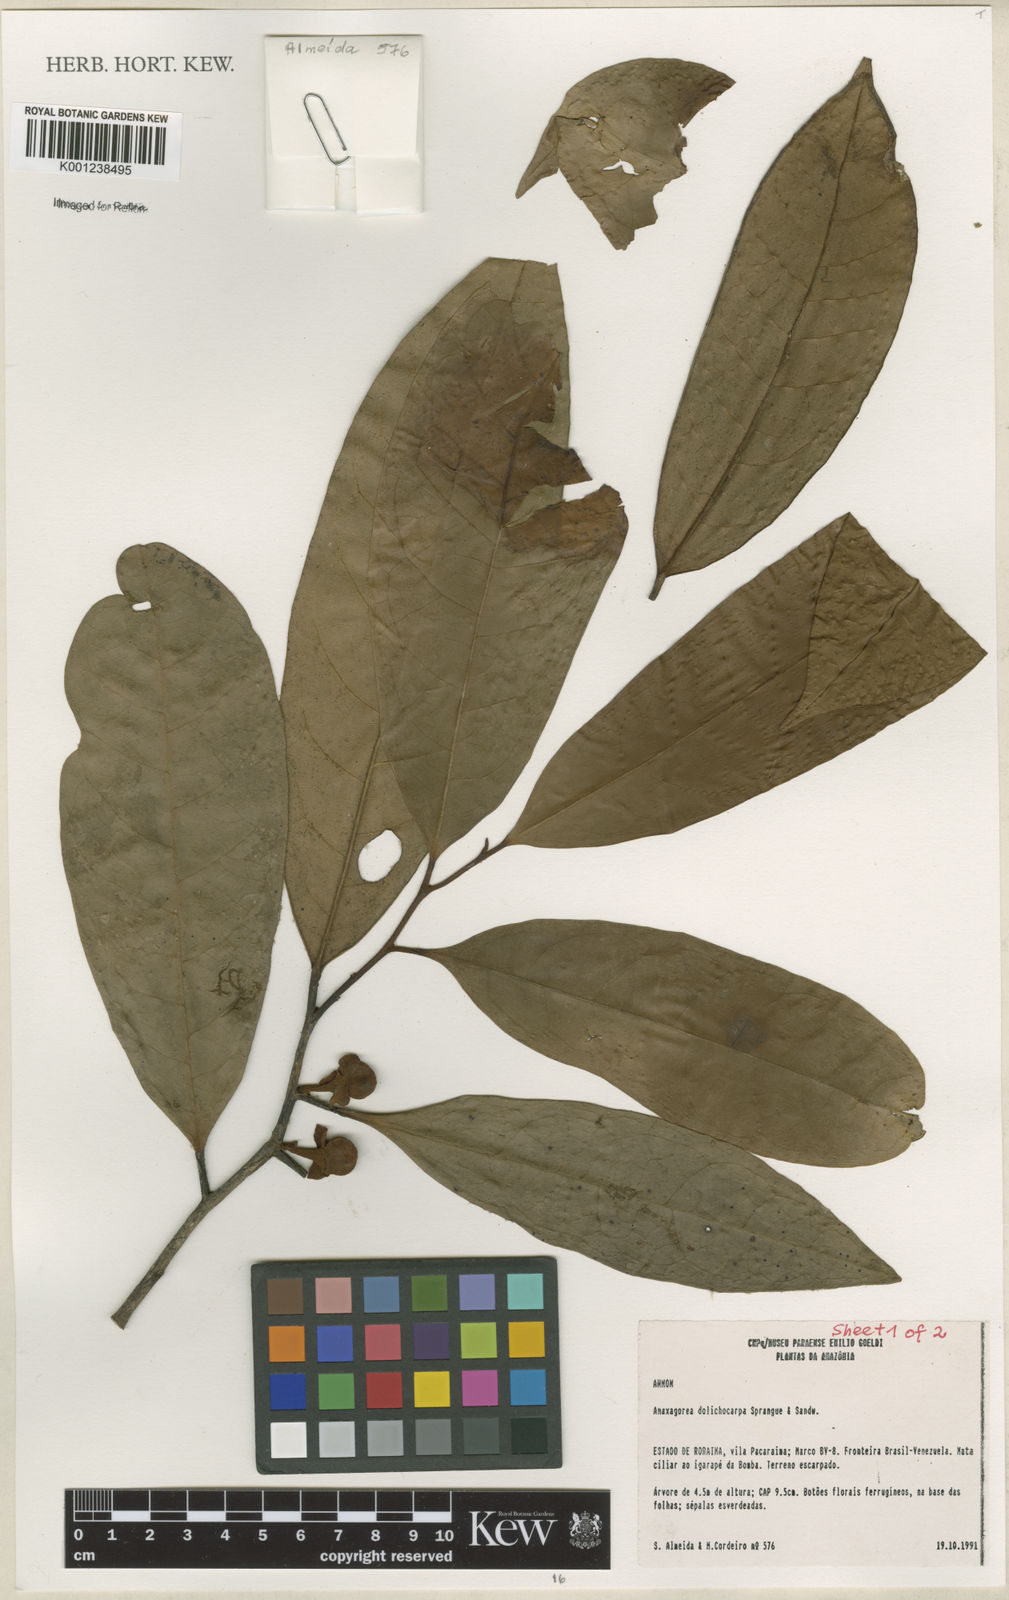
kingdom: Plantae
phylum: Tracheophyta
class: Magnoliopsida
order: Magnoliales
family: Annonaceae
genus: Anaxagorea
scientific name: Anaxagorea dolichocarpa
